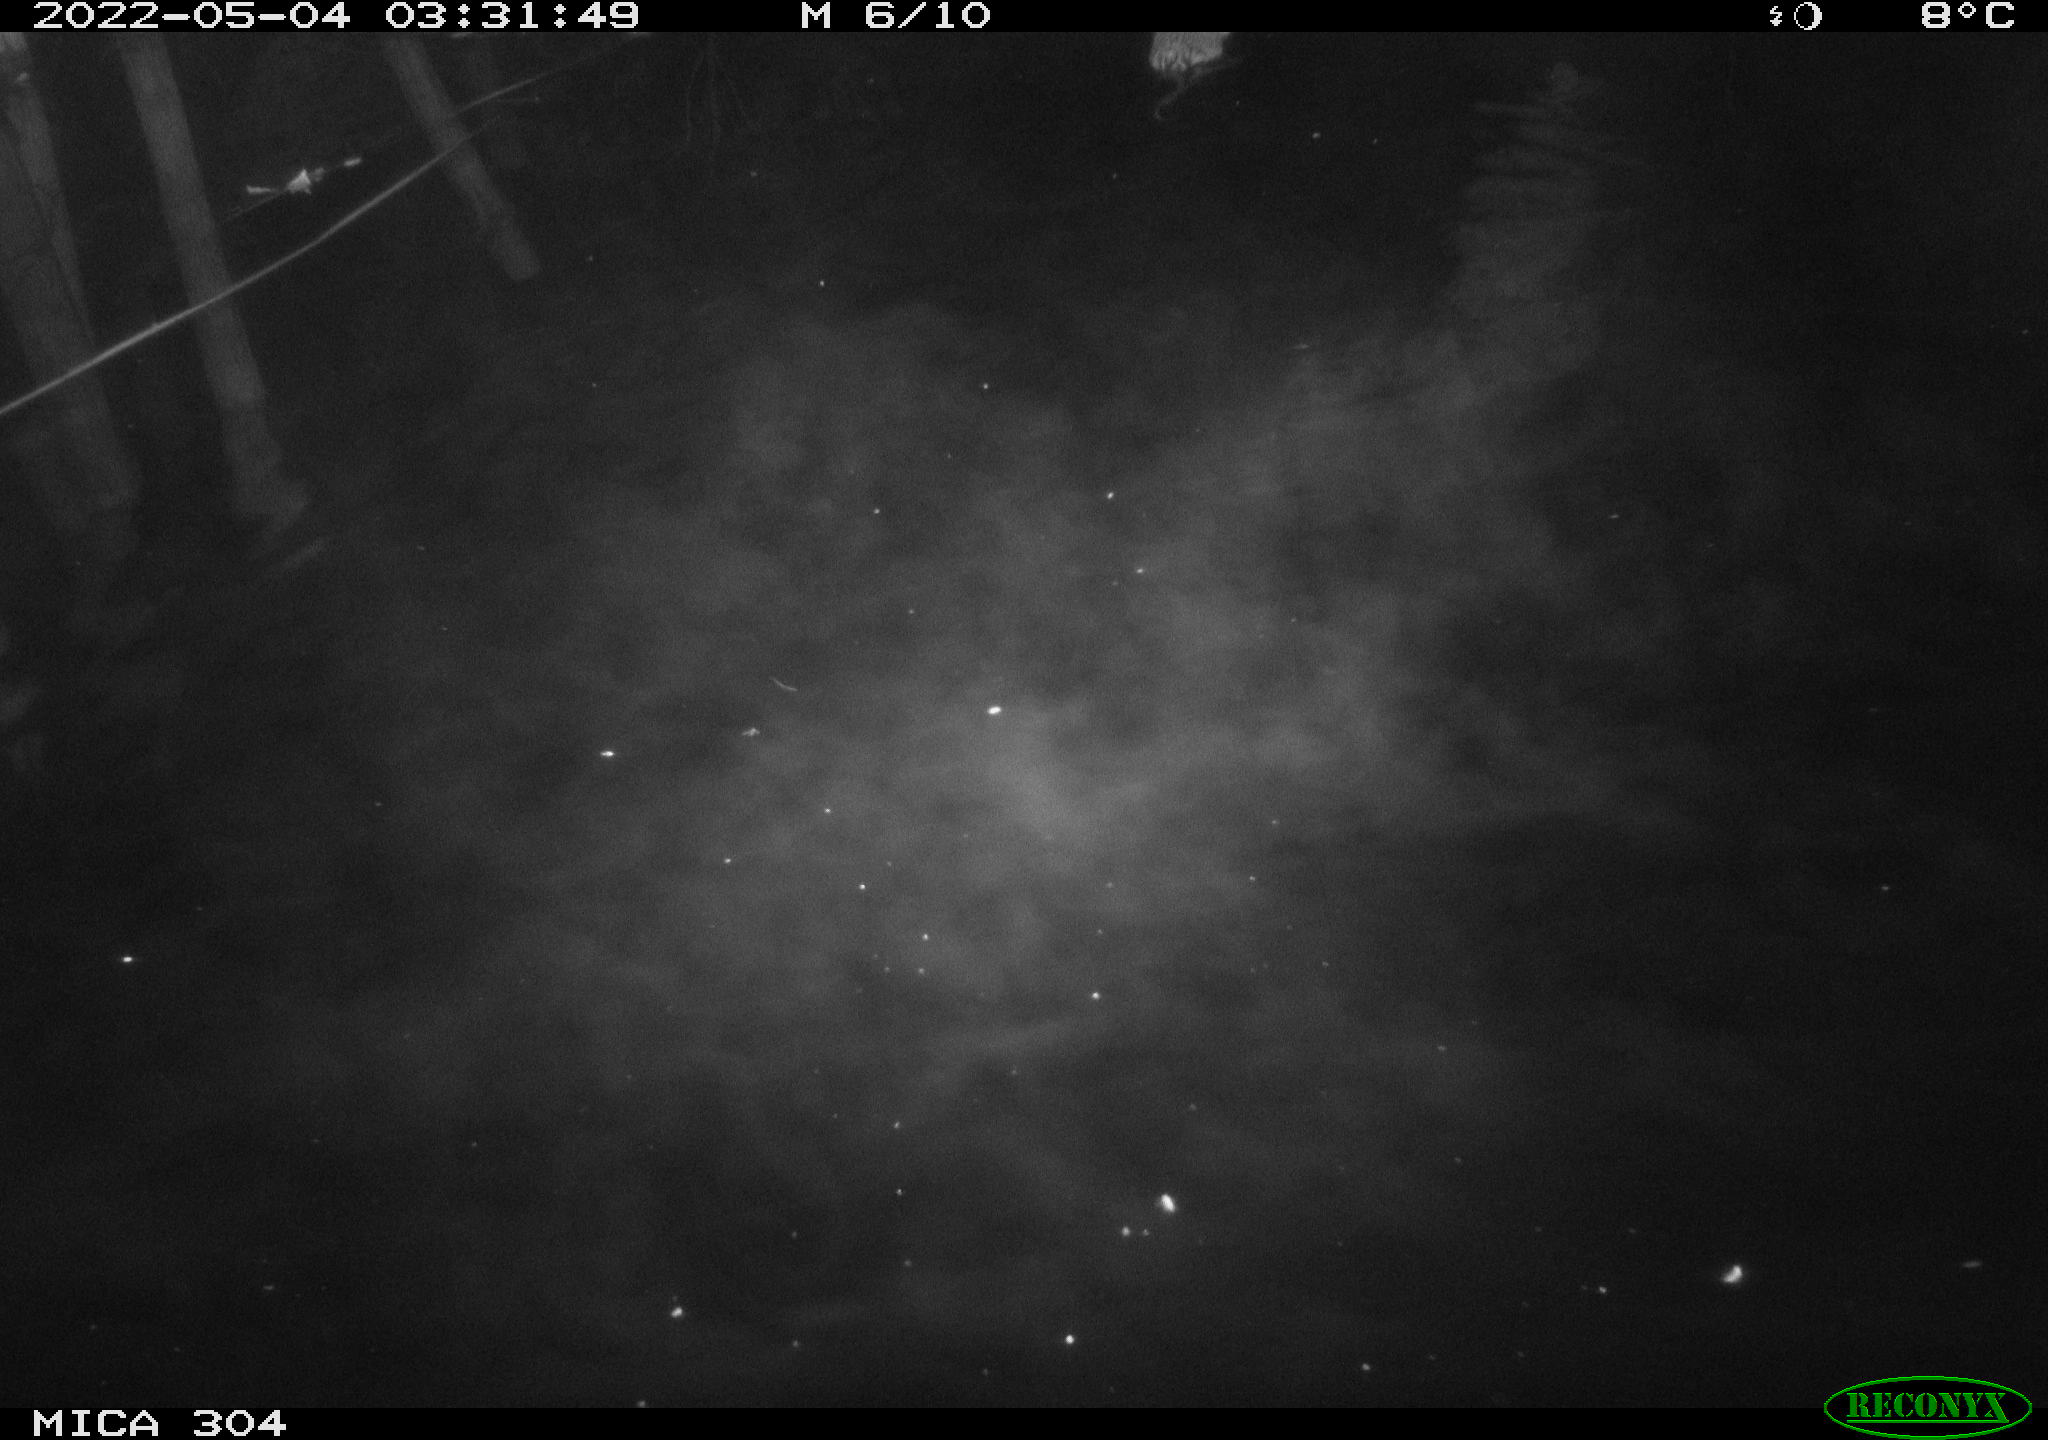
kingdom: Animalia
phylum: Chordata
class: Mammalia
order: Rodentia
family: Cricetidae
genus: Ondatra
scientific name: Ondatra zibethicus
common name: Muskrat
